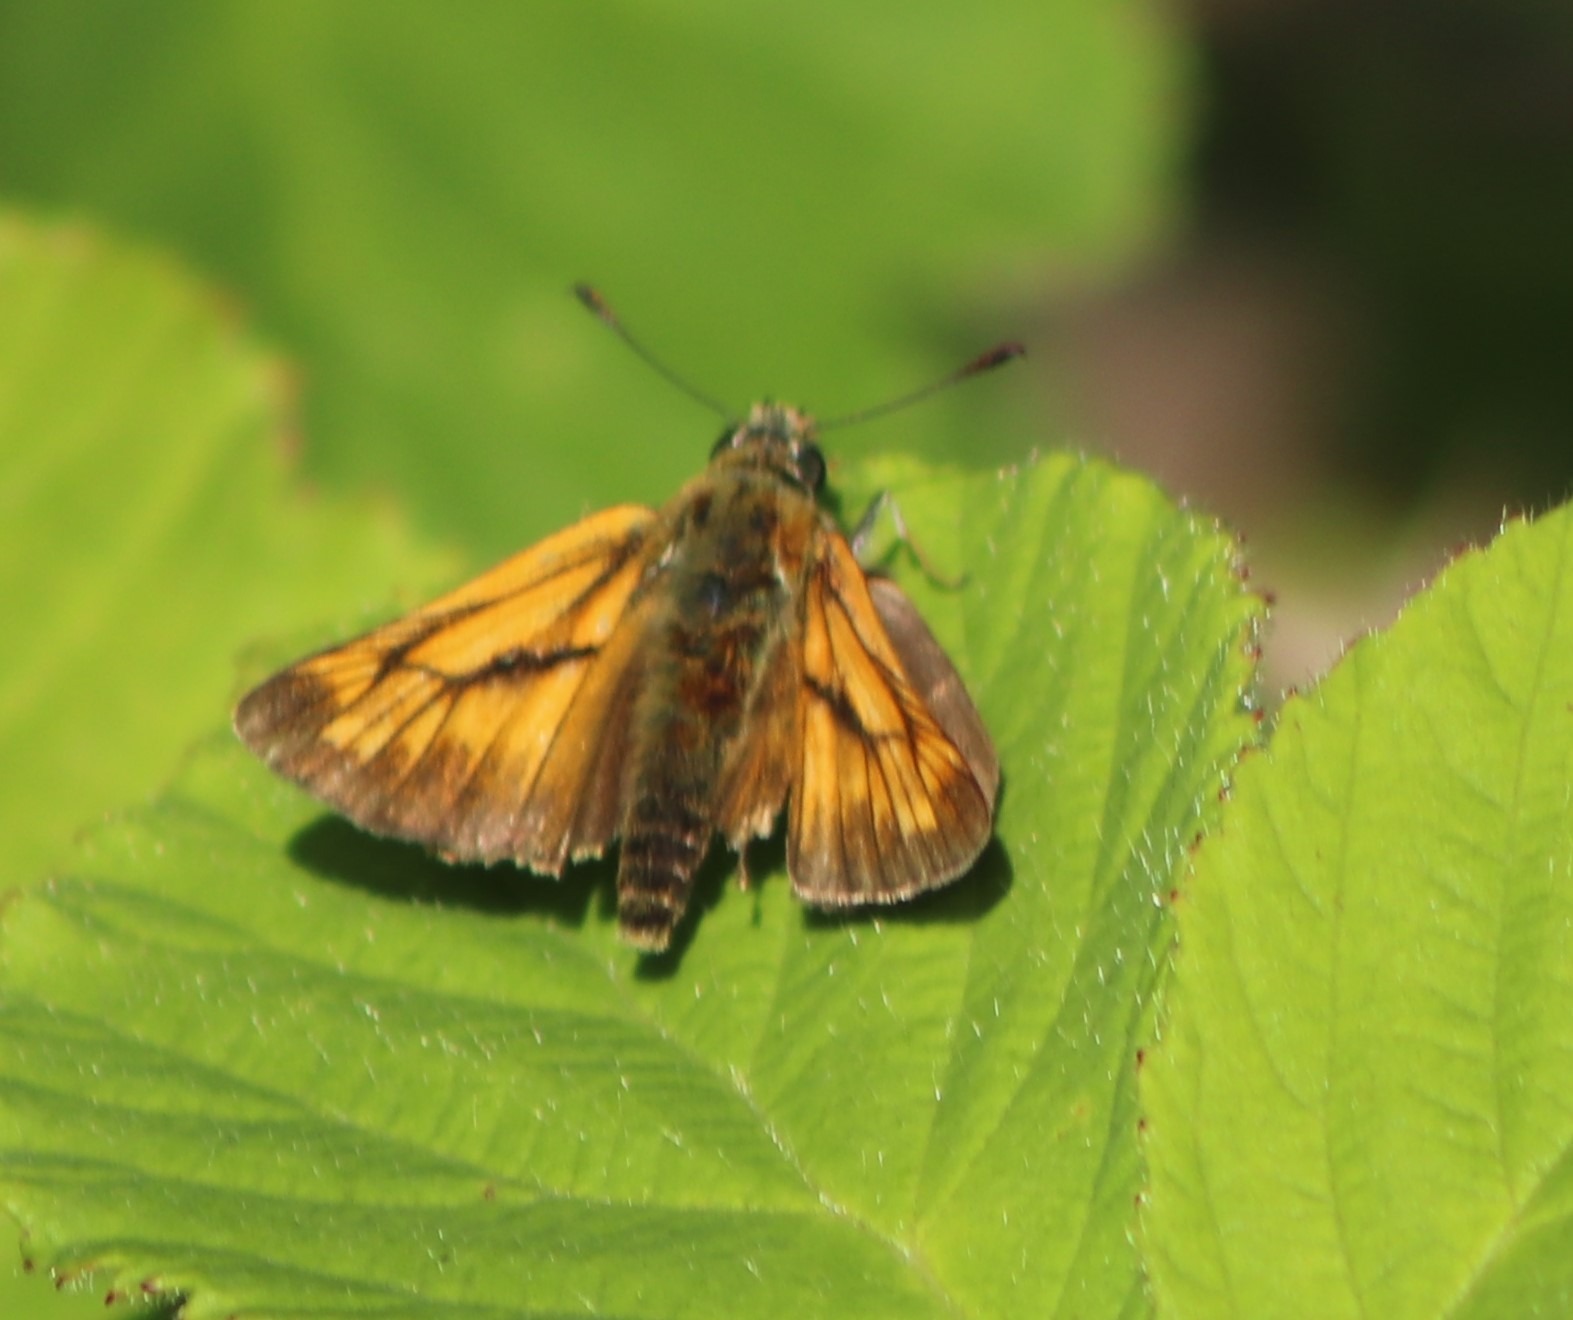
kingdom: Animalia
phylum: Arthropoda
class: Insecta
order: Lepidoptera
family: Hesperiidae
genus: Ochlodes
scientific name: Ochlodes venata
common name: Stor bredpande
